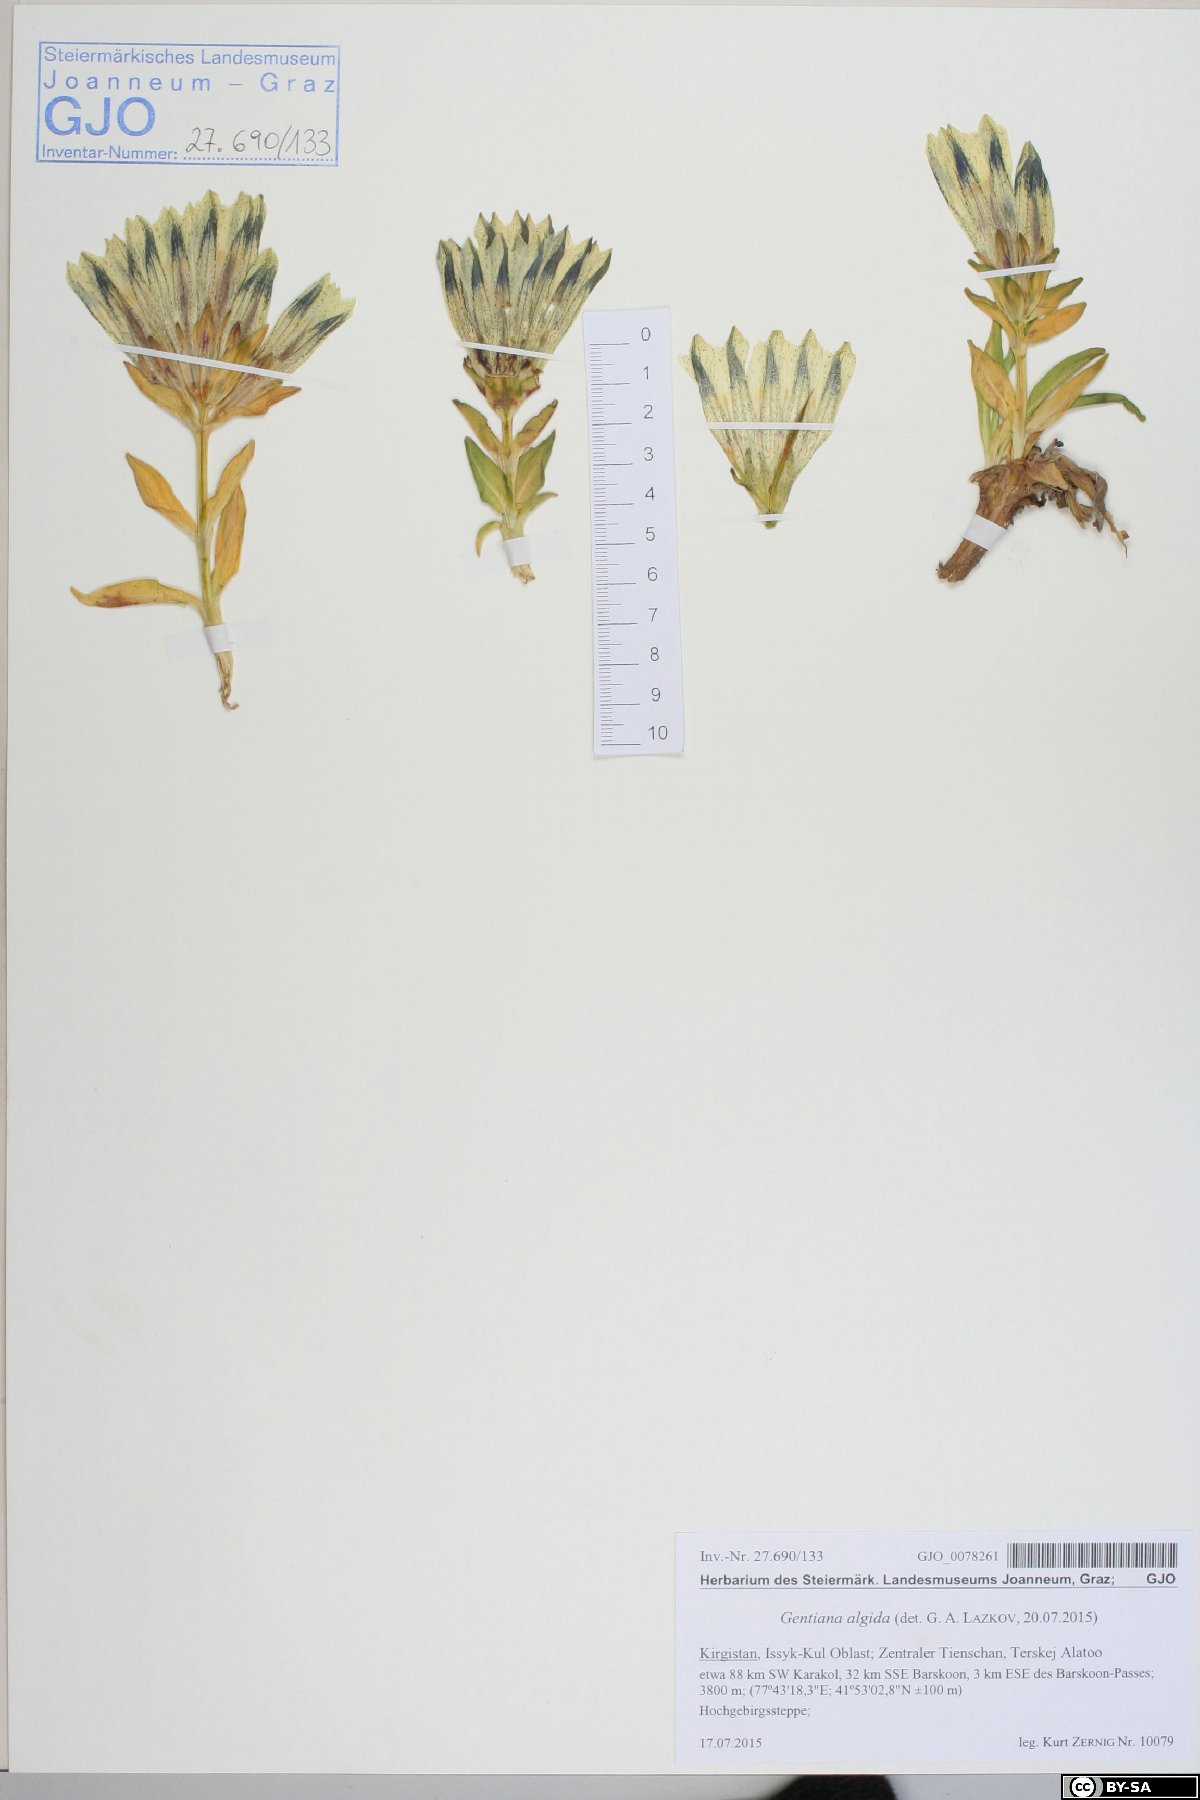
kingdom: Plantae
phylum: Tracheophyta
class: Magnoliopsida
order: Gentianales
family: Gentianaceae
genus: Gentiana
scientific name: Gentiana algida
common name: Arctic gentian
